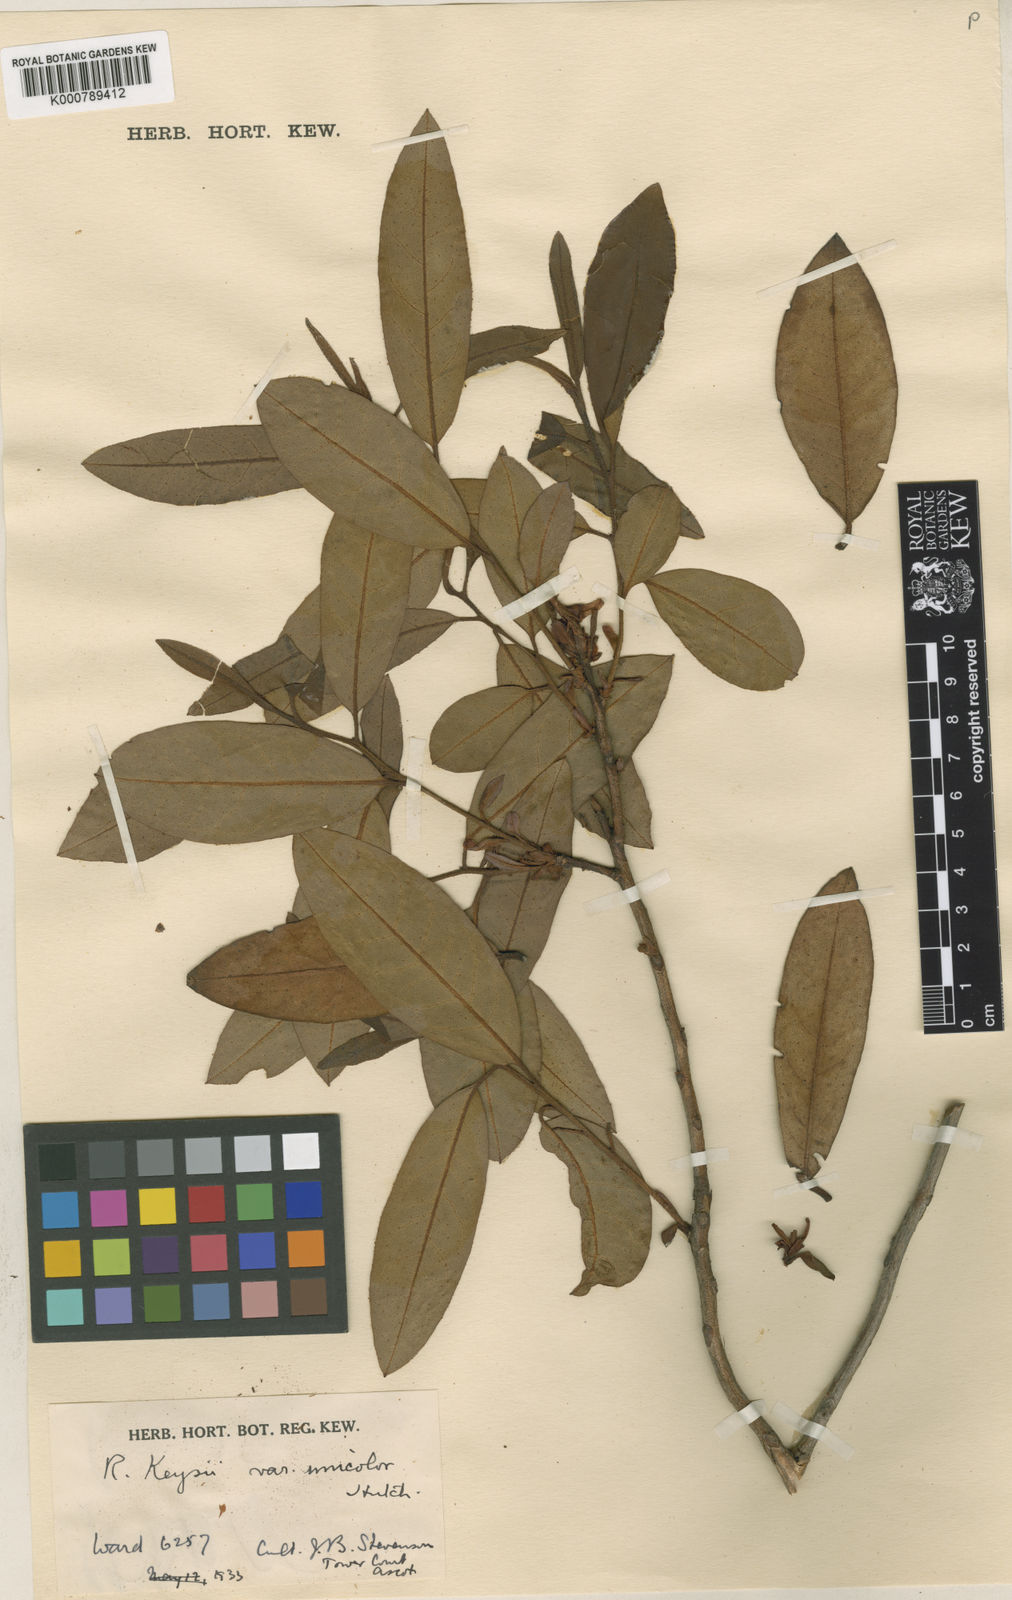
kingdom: Plantae
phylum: Tracheophyta
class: Magnoliopsida
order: Ericales
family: Ericaceae
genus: Rhododendron
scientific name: Rhododendron
